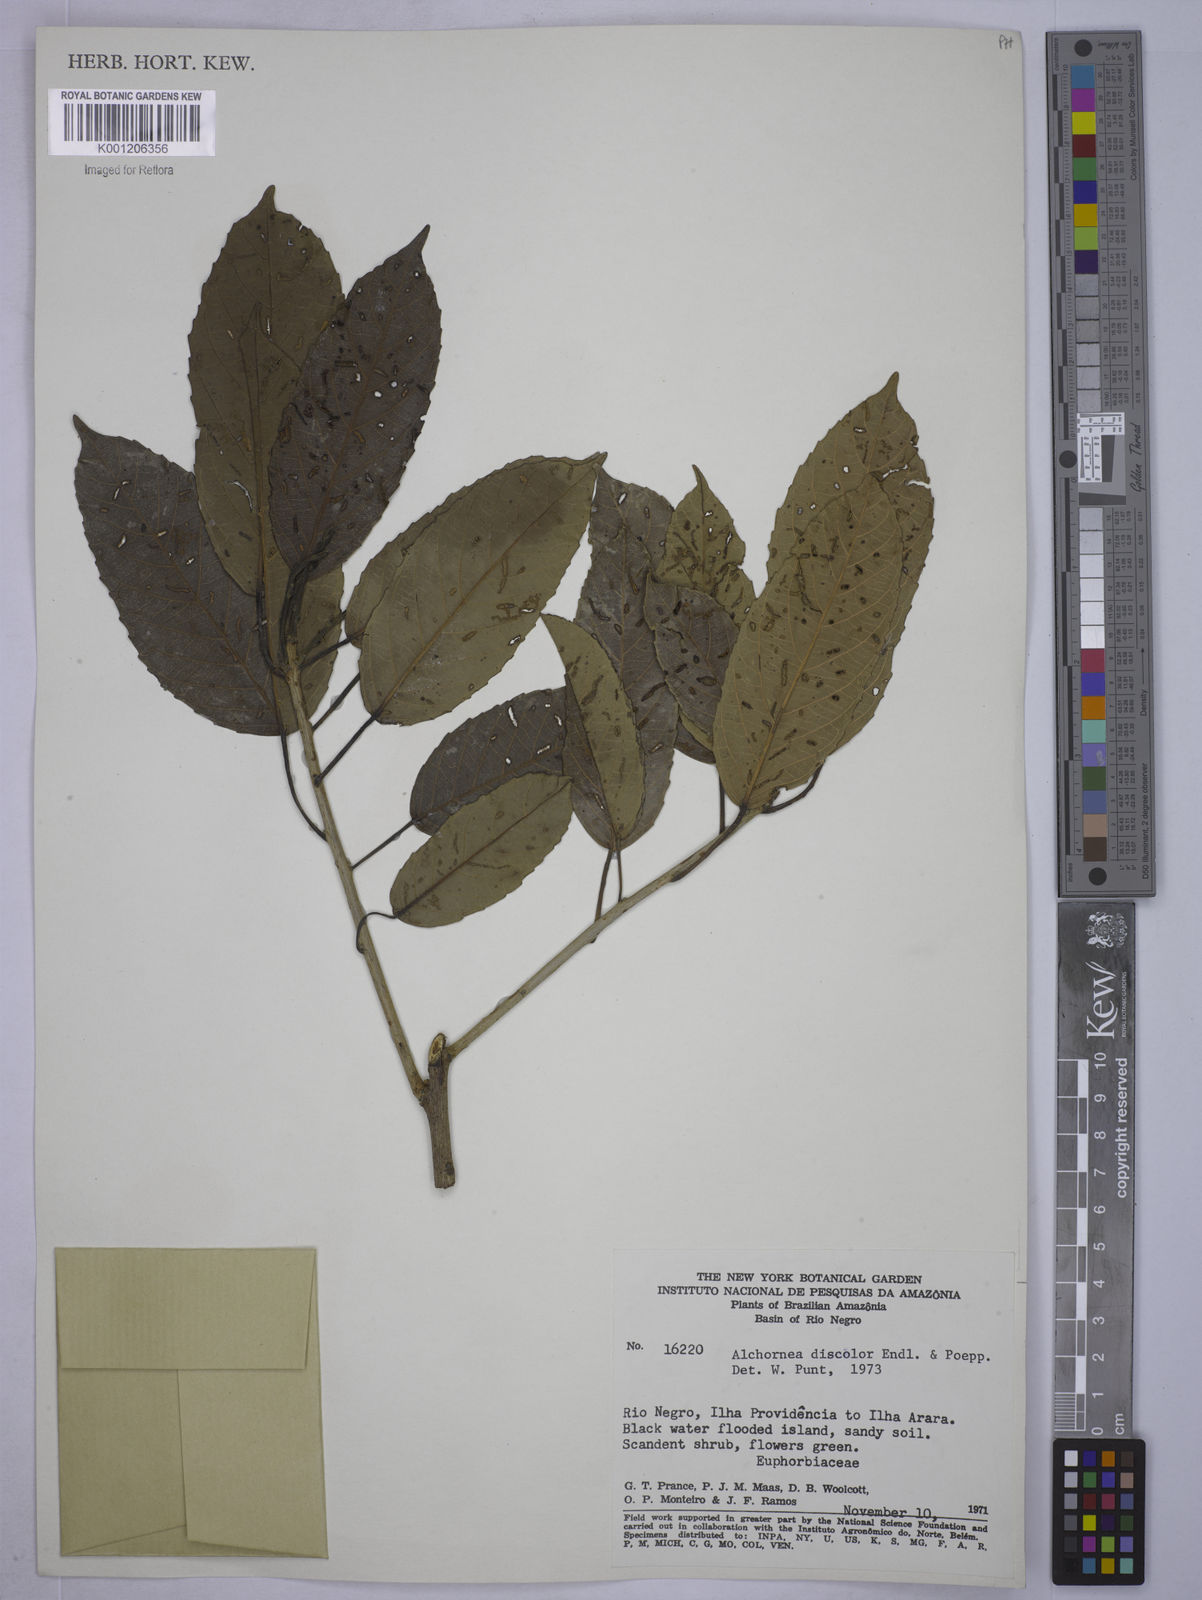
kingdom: Plantae
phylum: Tracheophyta
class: Magnoliopsida
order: Malpighiales
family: Euphorbiaceae
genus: Alchornea
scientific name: Alchornea discolor
